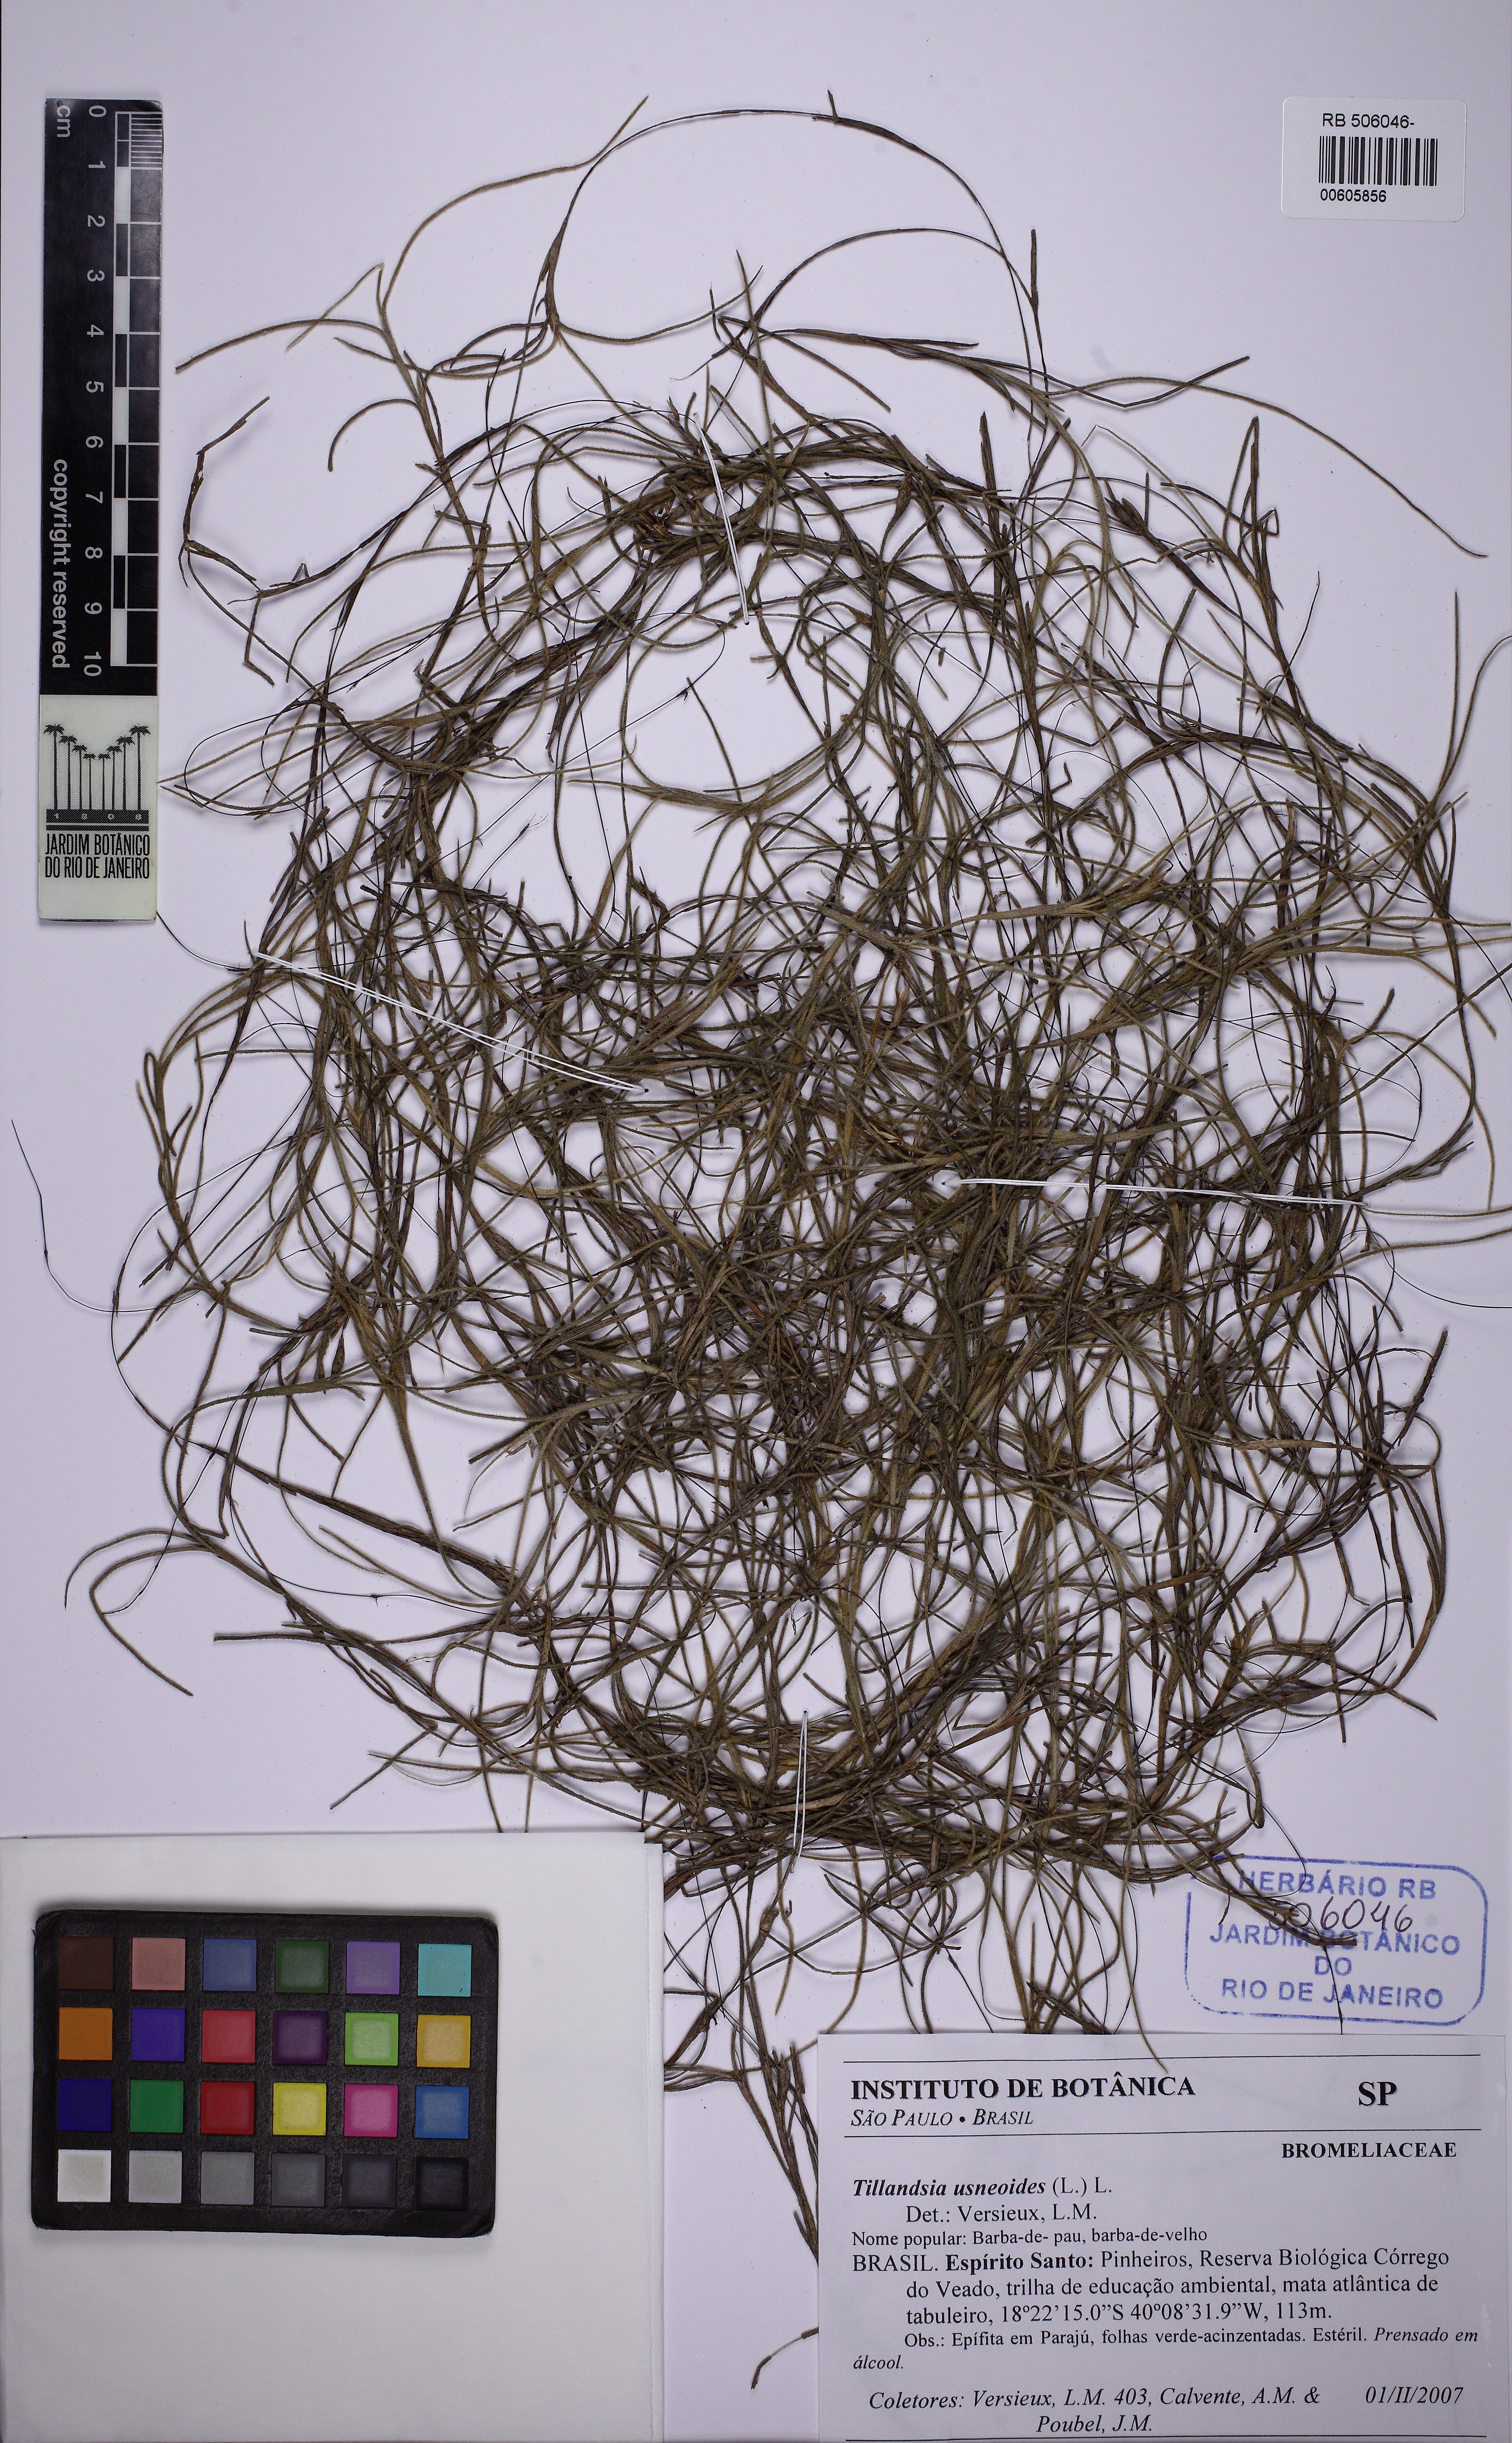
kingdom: Plantae
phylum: Tracheophyta
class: Liliopsida
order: Poales
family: Bromeliaceae
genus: Tillandsia
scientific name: Tillandsia usneoides
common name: Spanish moss
